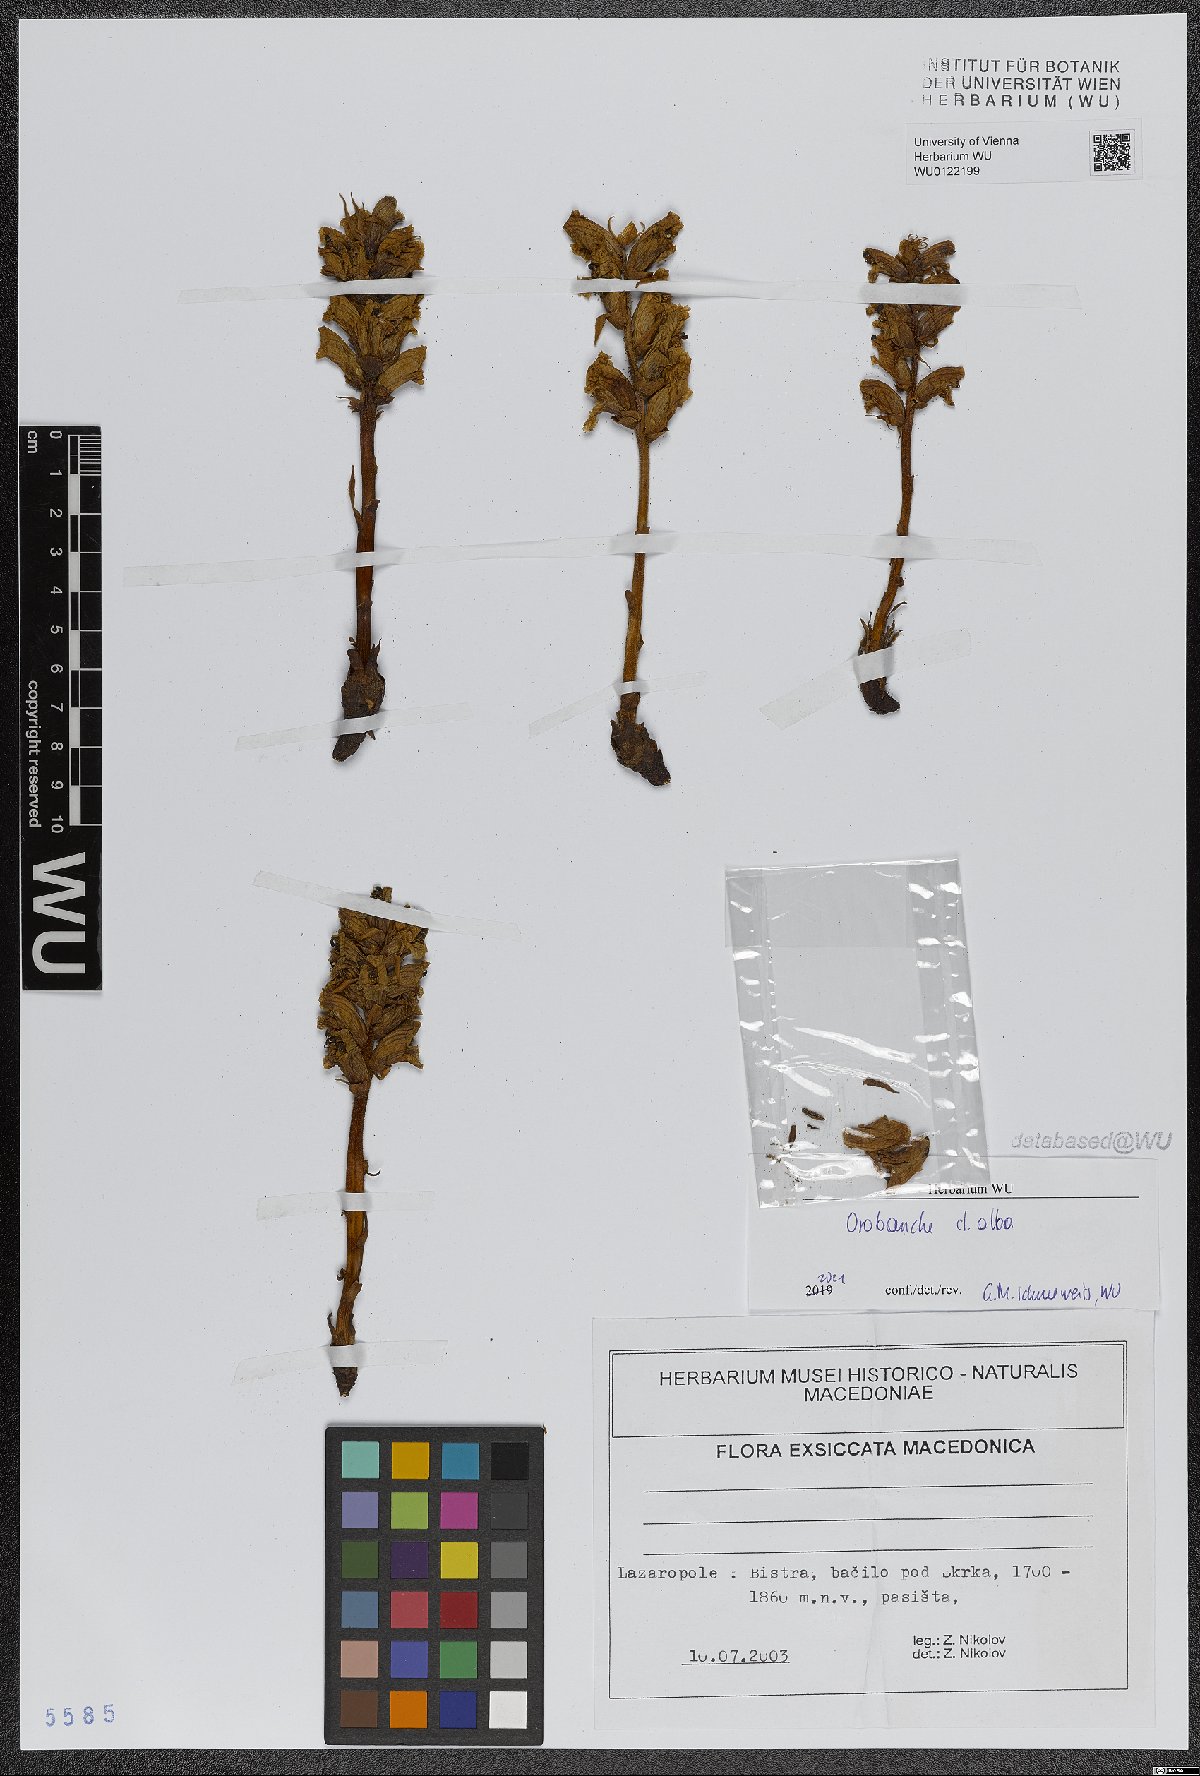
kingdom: Plantae
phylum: Tracheophyta
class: Magnoliopsida
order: Lamiales
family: Orobanchaceae
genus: Orobanche
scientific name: Orobanche alba
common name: Thyme broomrape
